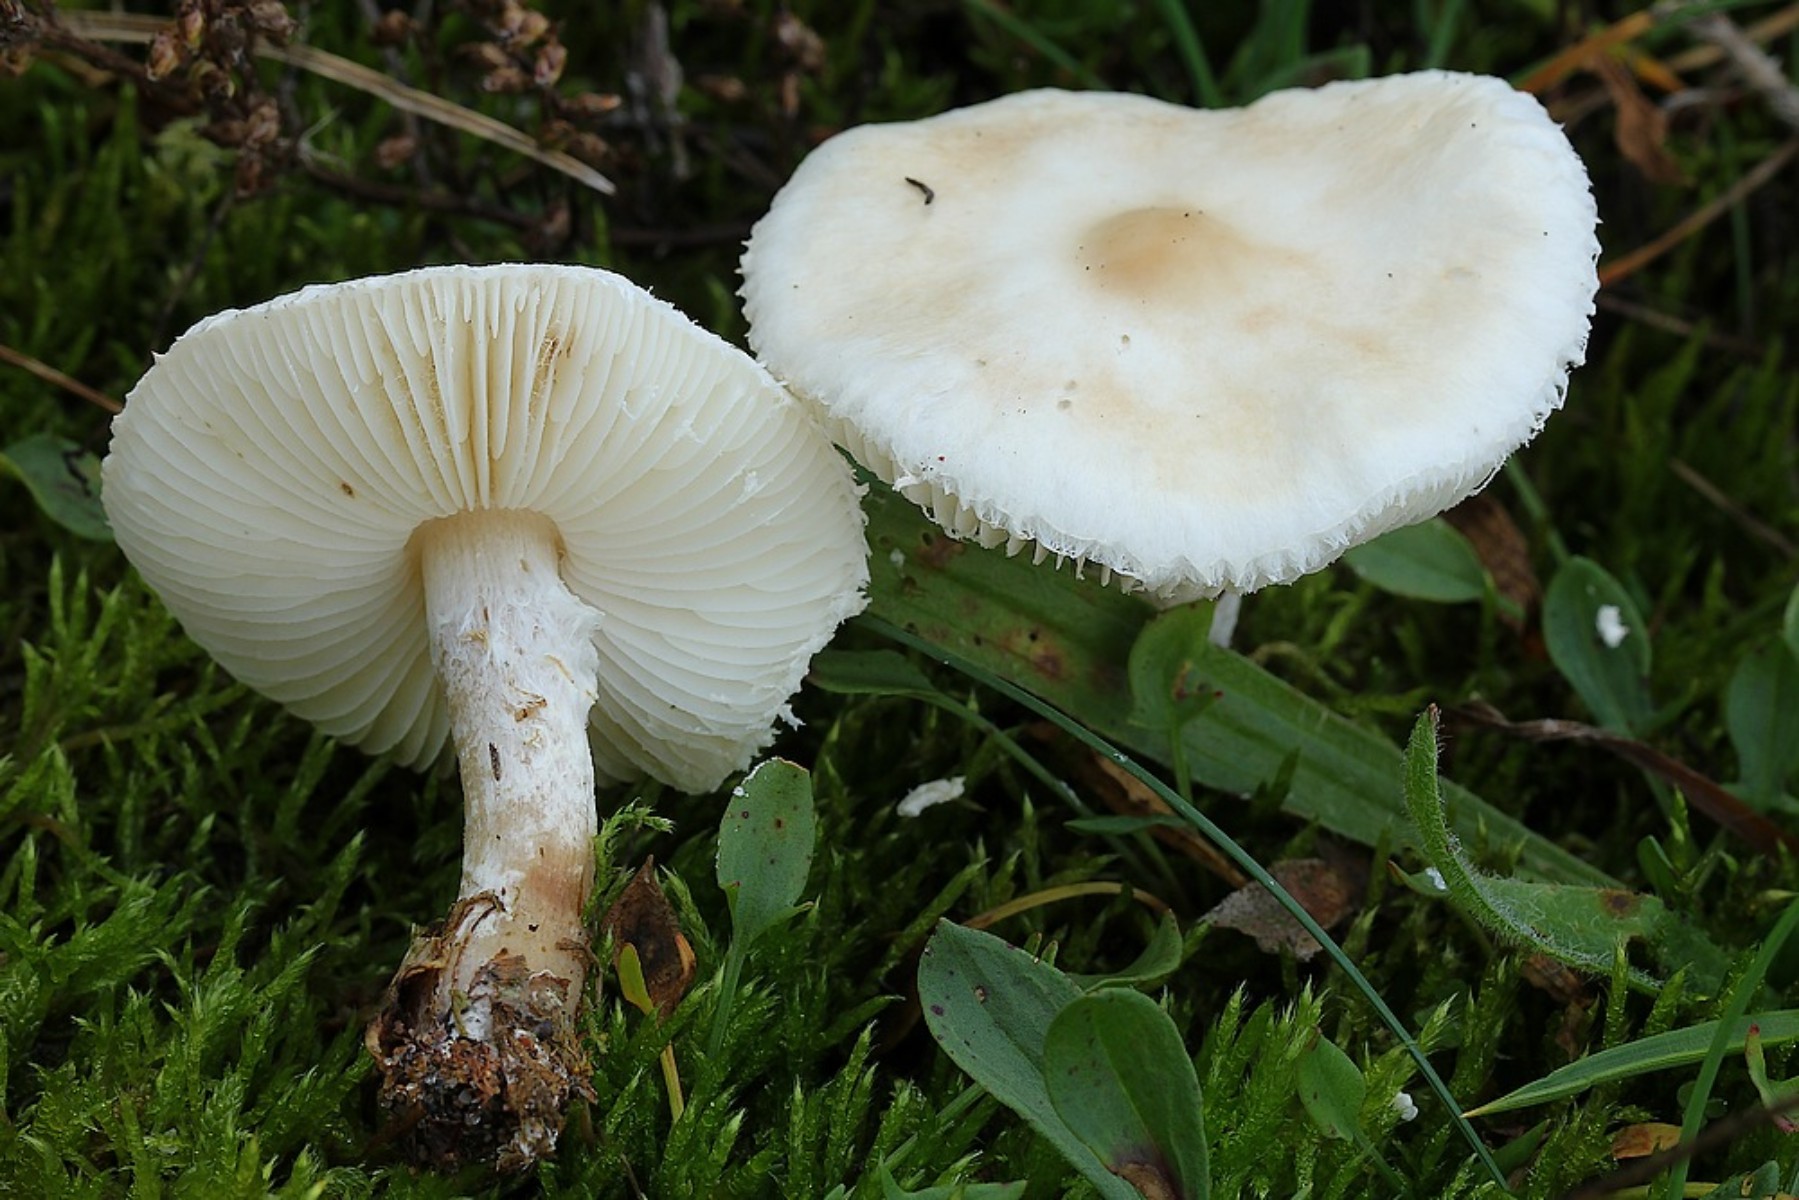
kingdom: Fungi
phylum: Basidiomycota
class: Agaricomycetes
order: Agaricales
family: Agaricaceae
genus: Lepiota
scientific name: Lepiota erminea
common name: hvid parasolhat
